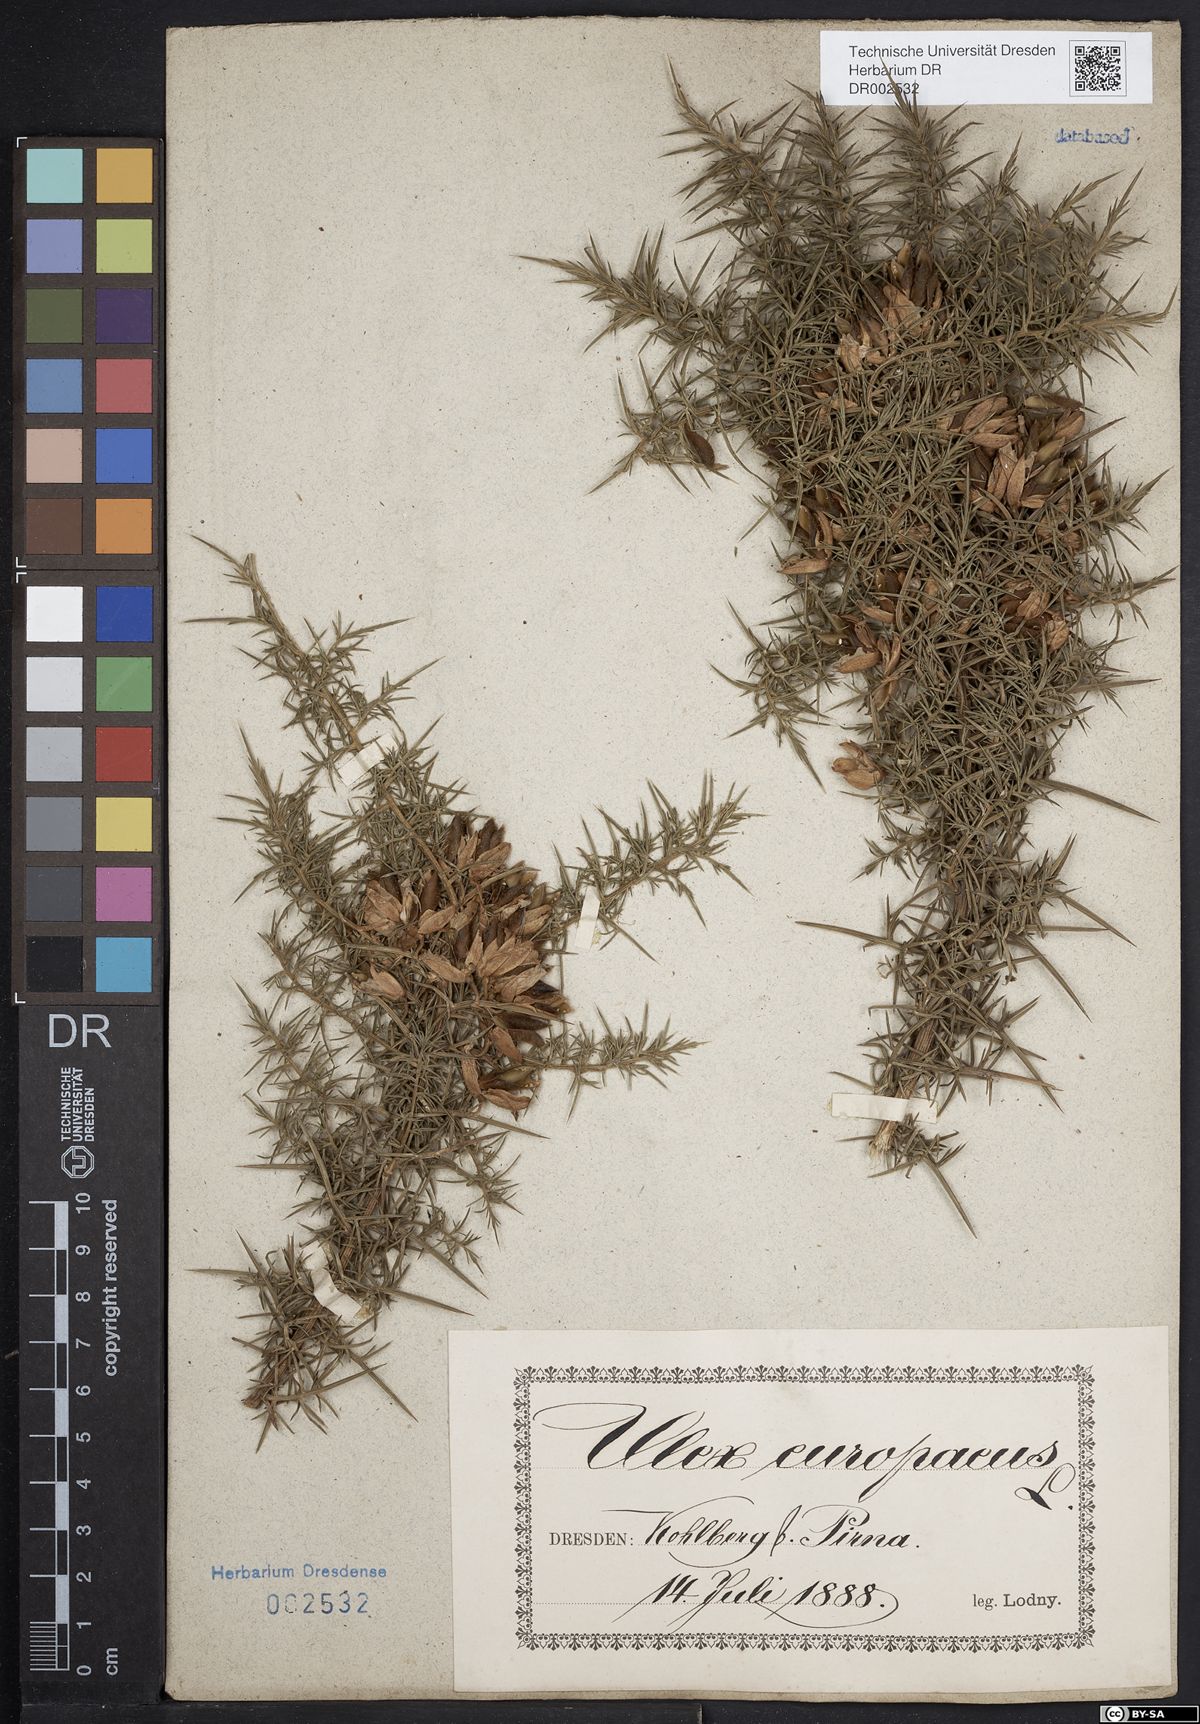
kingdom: Plantae
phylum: Tracheophyta
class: Magnoliopsida
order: Fabales
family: Fabaceae
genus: Ulex
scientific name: Ulex europaeus
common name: Common gorse
